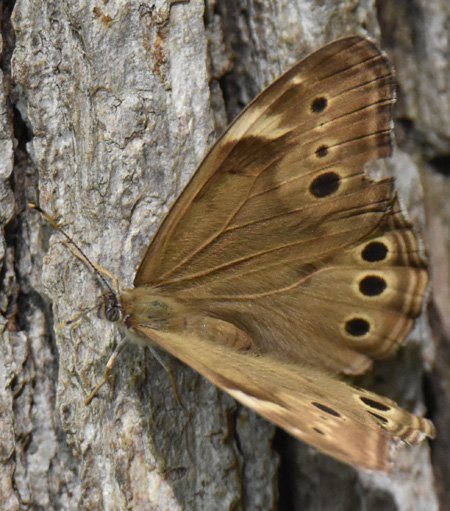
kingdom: Animalia
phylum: Arthropoda
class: Insecta
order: Lepidoptera
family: Nymphalidae
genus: Lethe
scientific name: Lethe anthedon
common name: Northern Pearly-Eye
